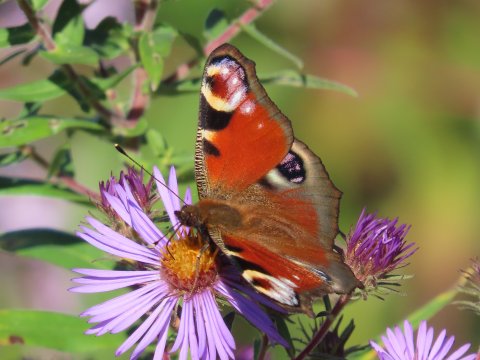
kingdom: Animalia
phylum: Arthropoda
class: Insecta
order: Lepidoptera
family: Nymphalidae
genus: Aglais
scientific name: Aglais io
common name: European Peacock
